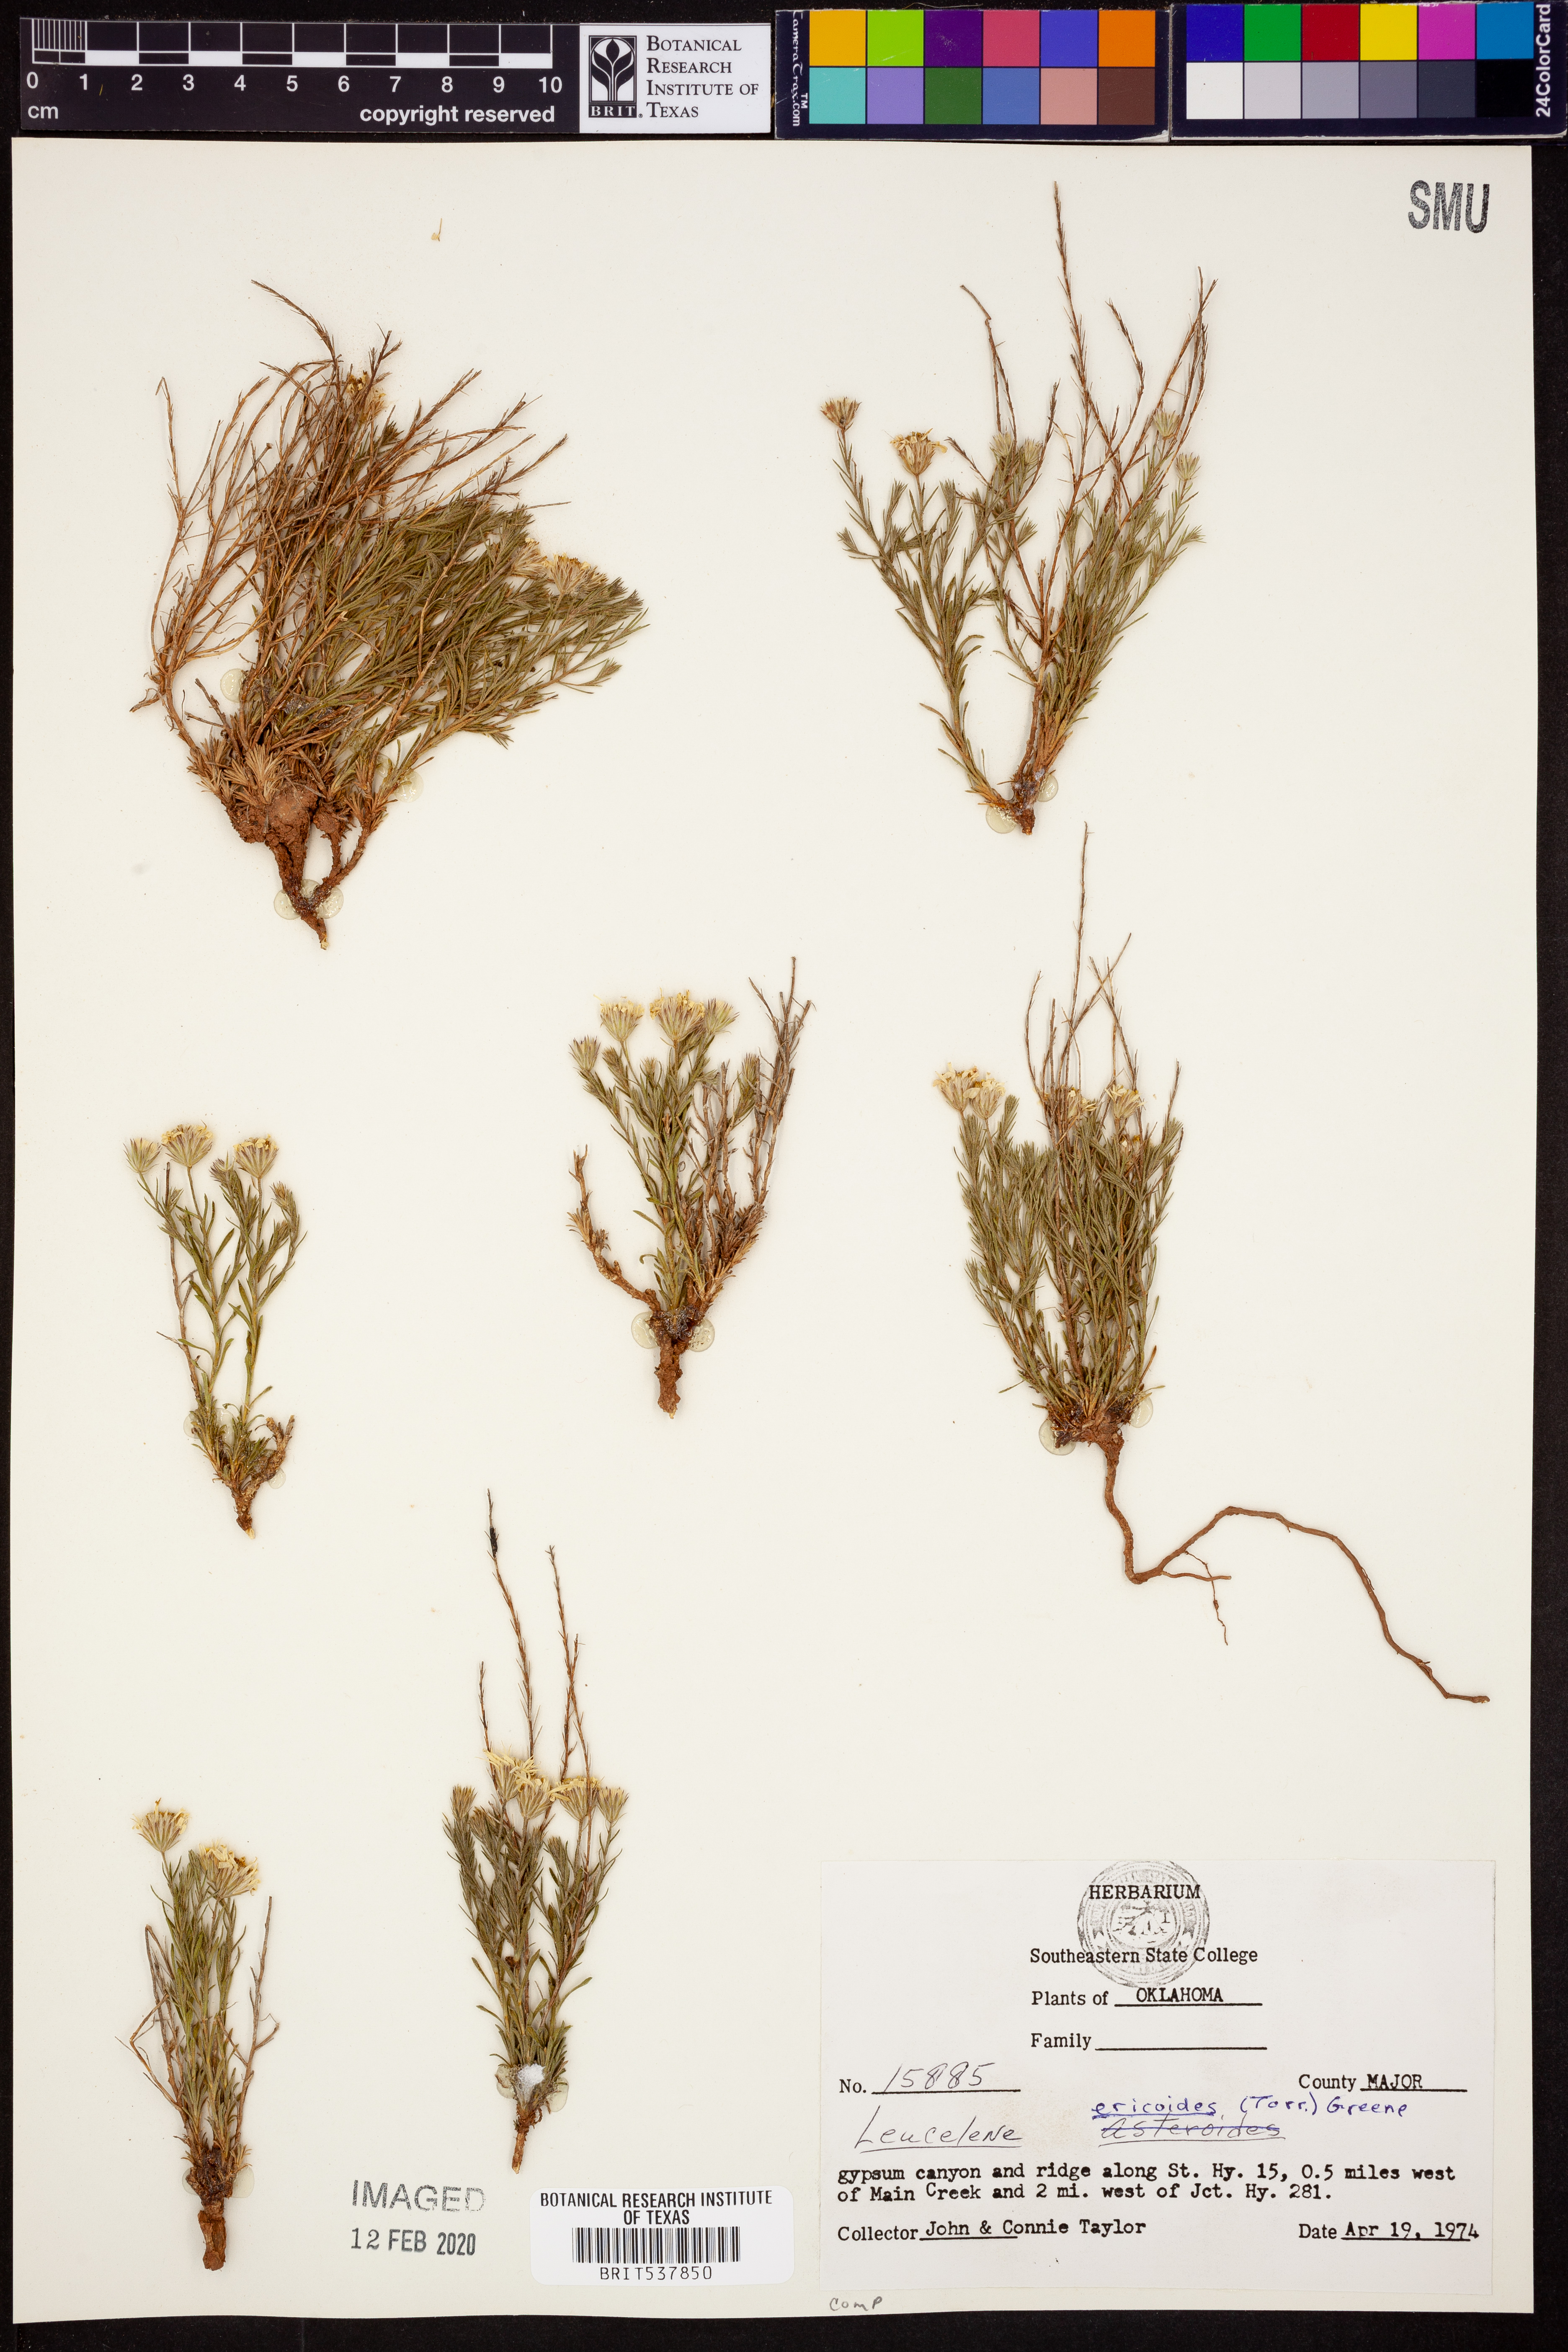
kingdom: Plantae
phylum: Tracheophyta
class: Magnoliopsida
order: Asterales
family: Asteraceae
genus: Chaetopappa
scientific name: Chaetopappa ericoides
